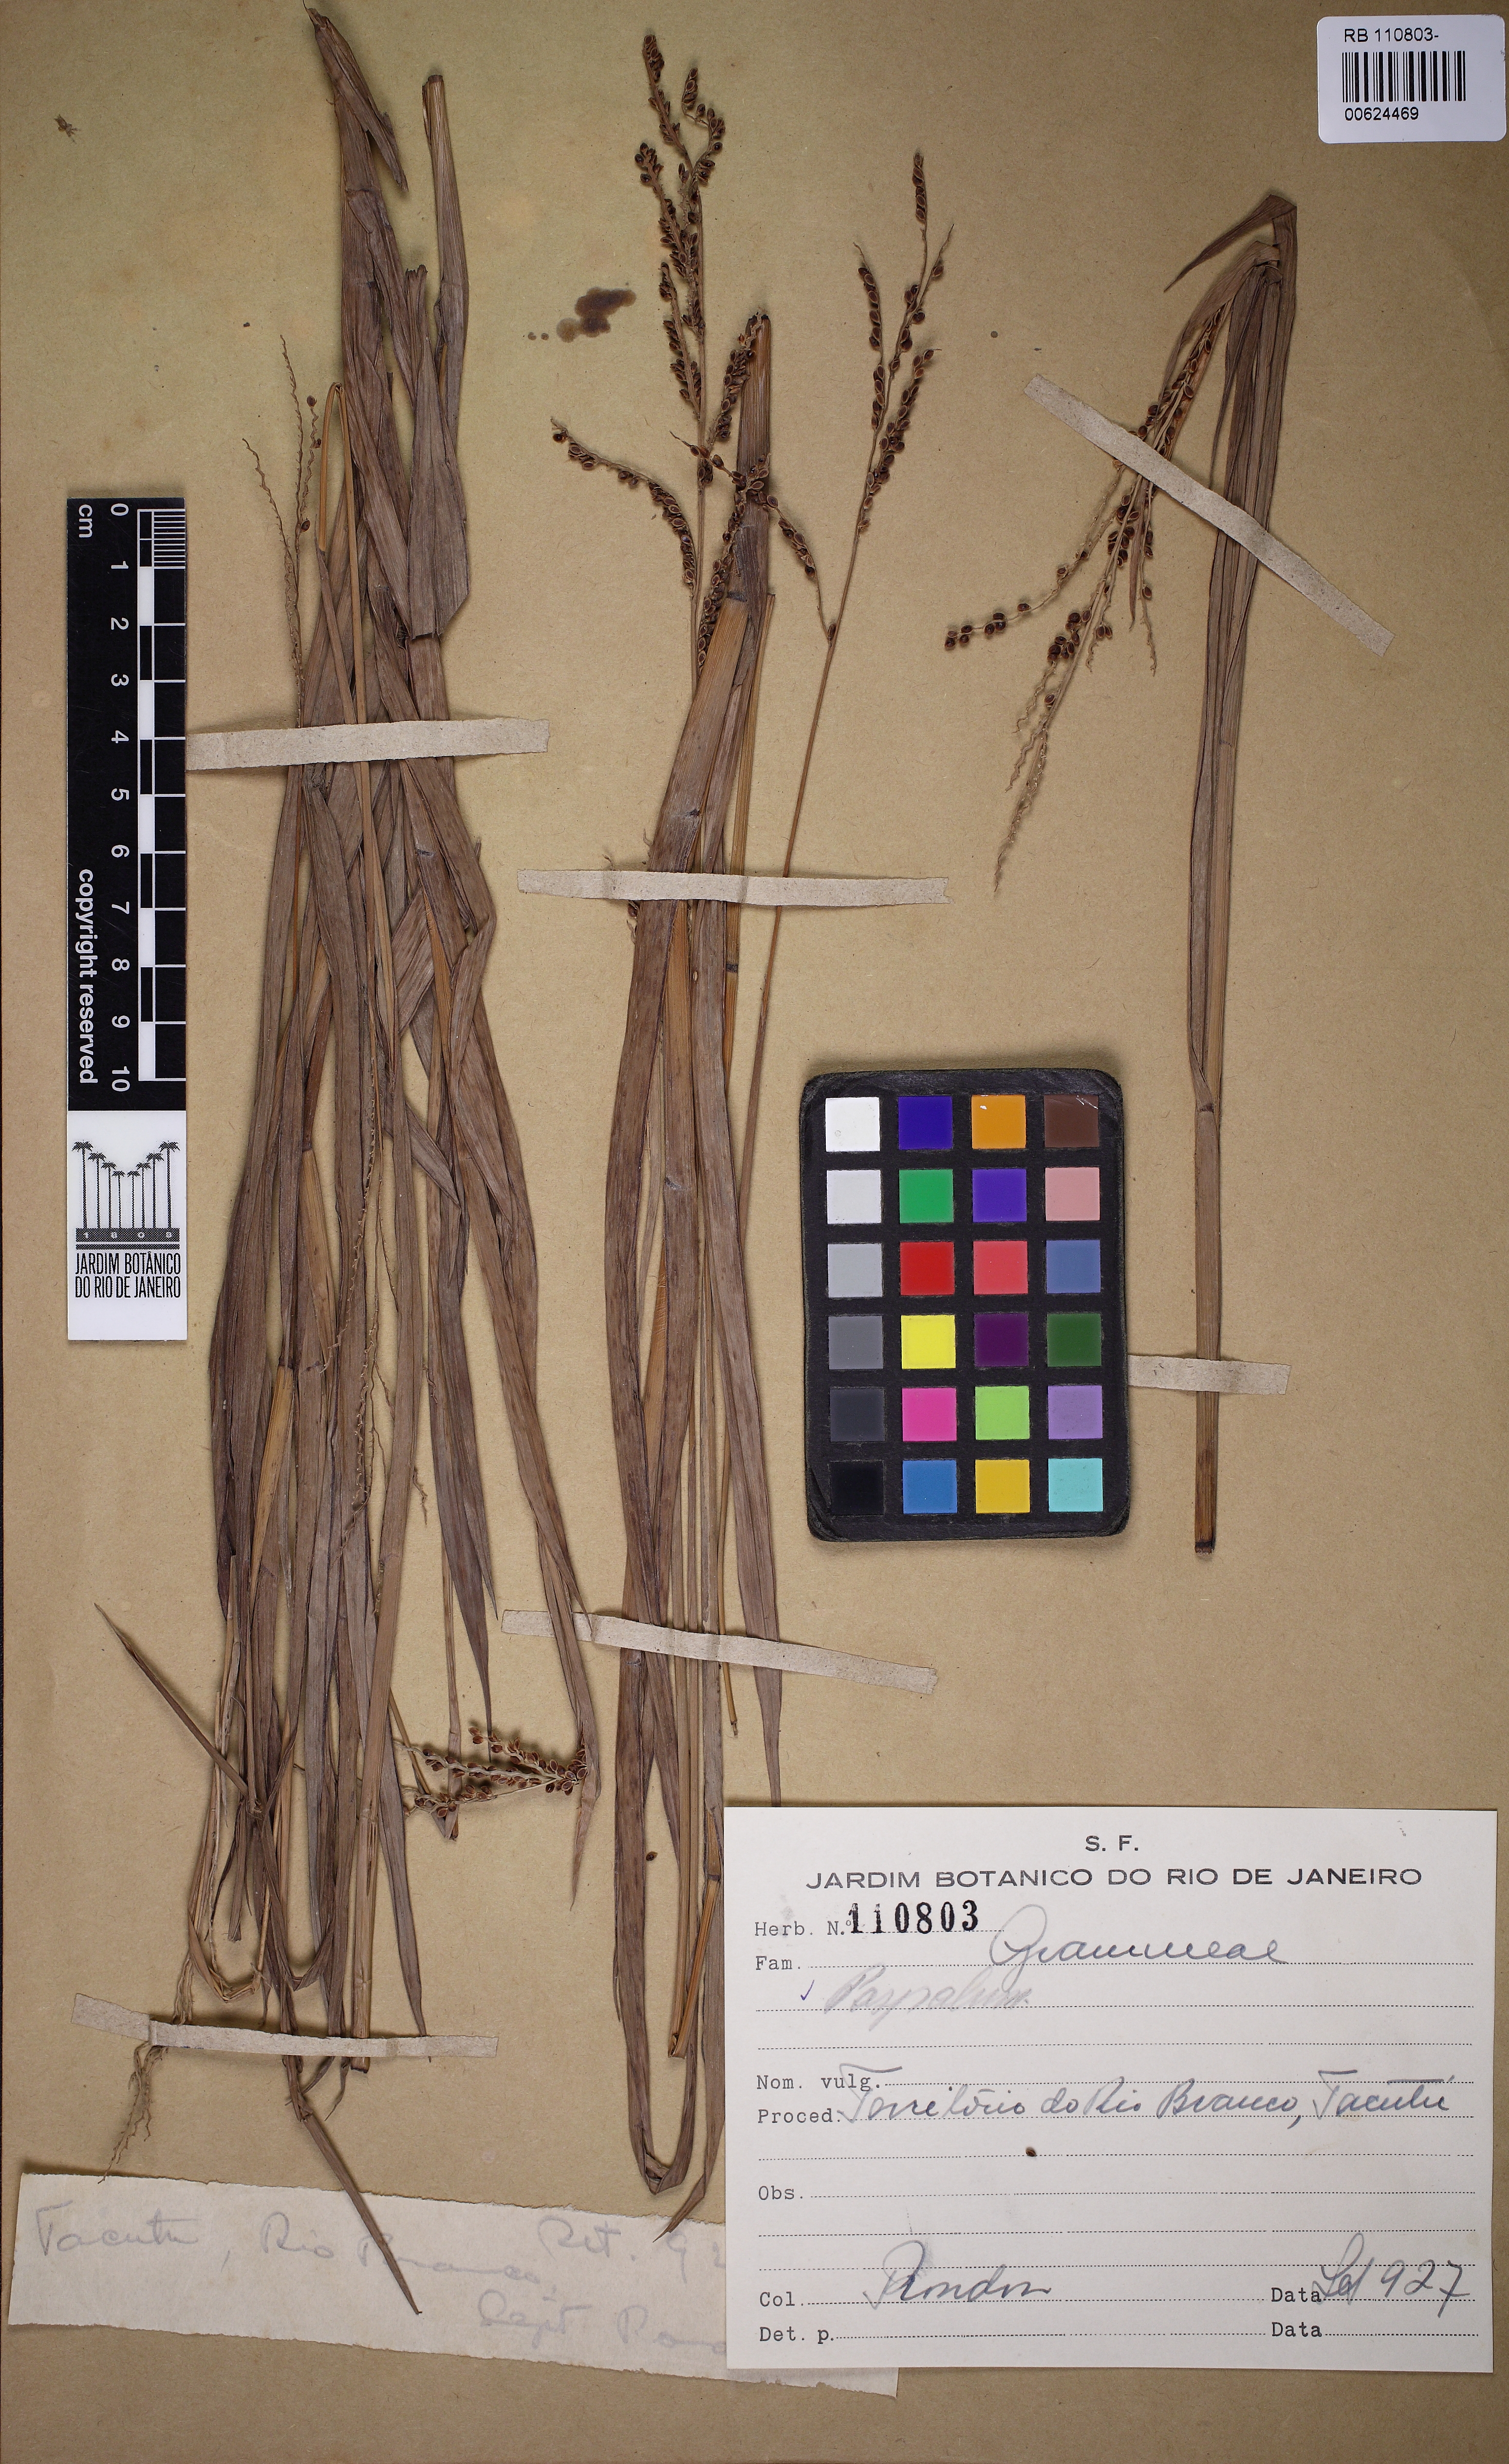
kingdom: Plantae
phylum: Tracheophyta
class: Liliopsida
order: Poales
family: Poaceae
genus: Paspalum
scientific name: Paspalum plicatulum
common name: Top paspalum
